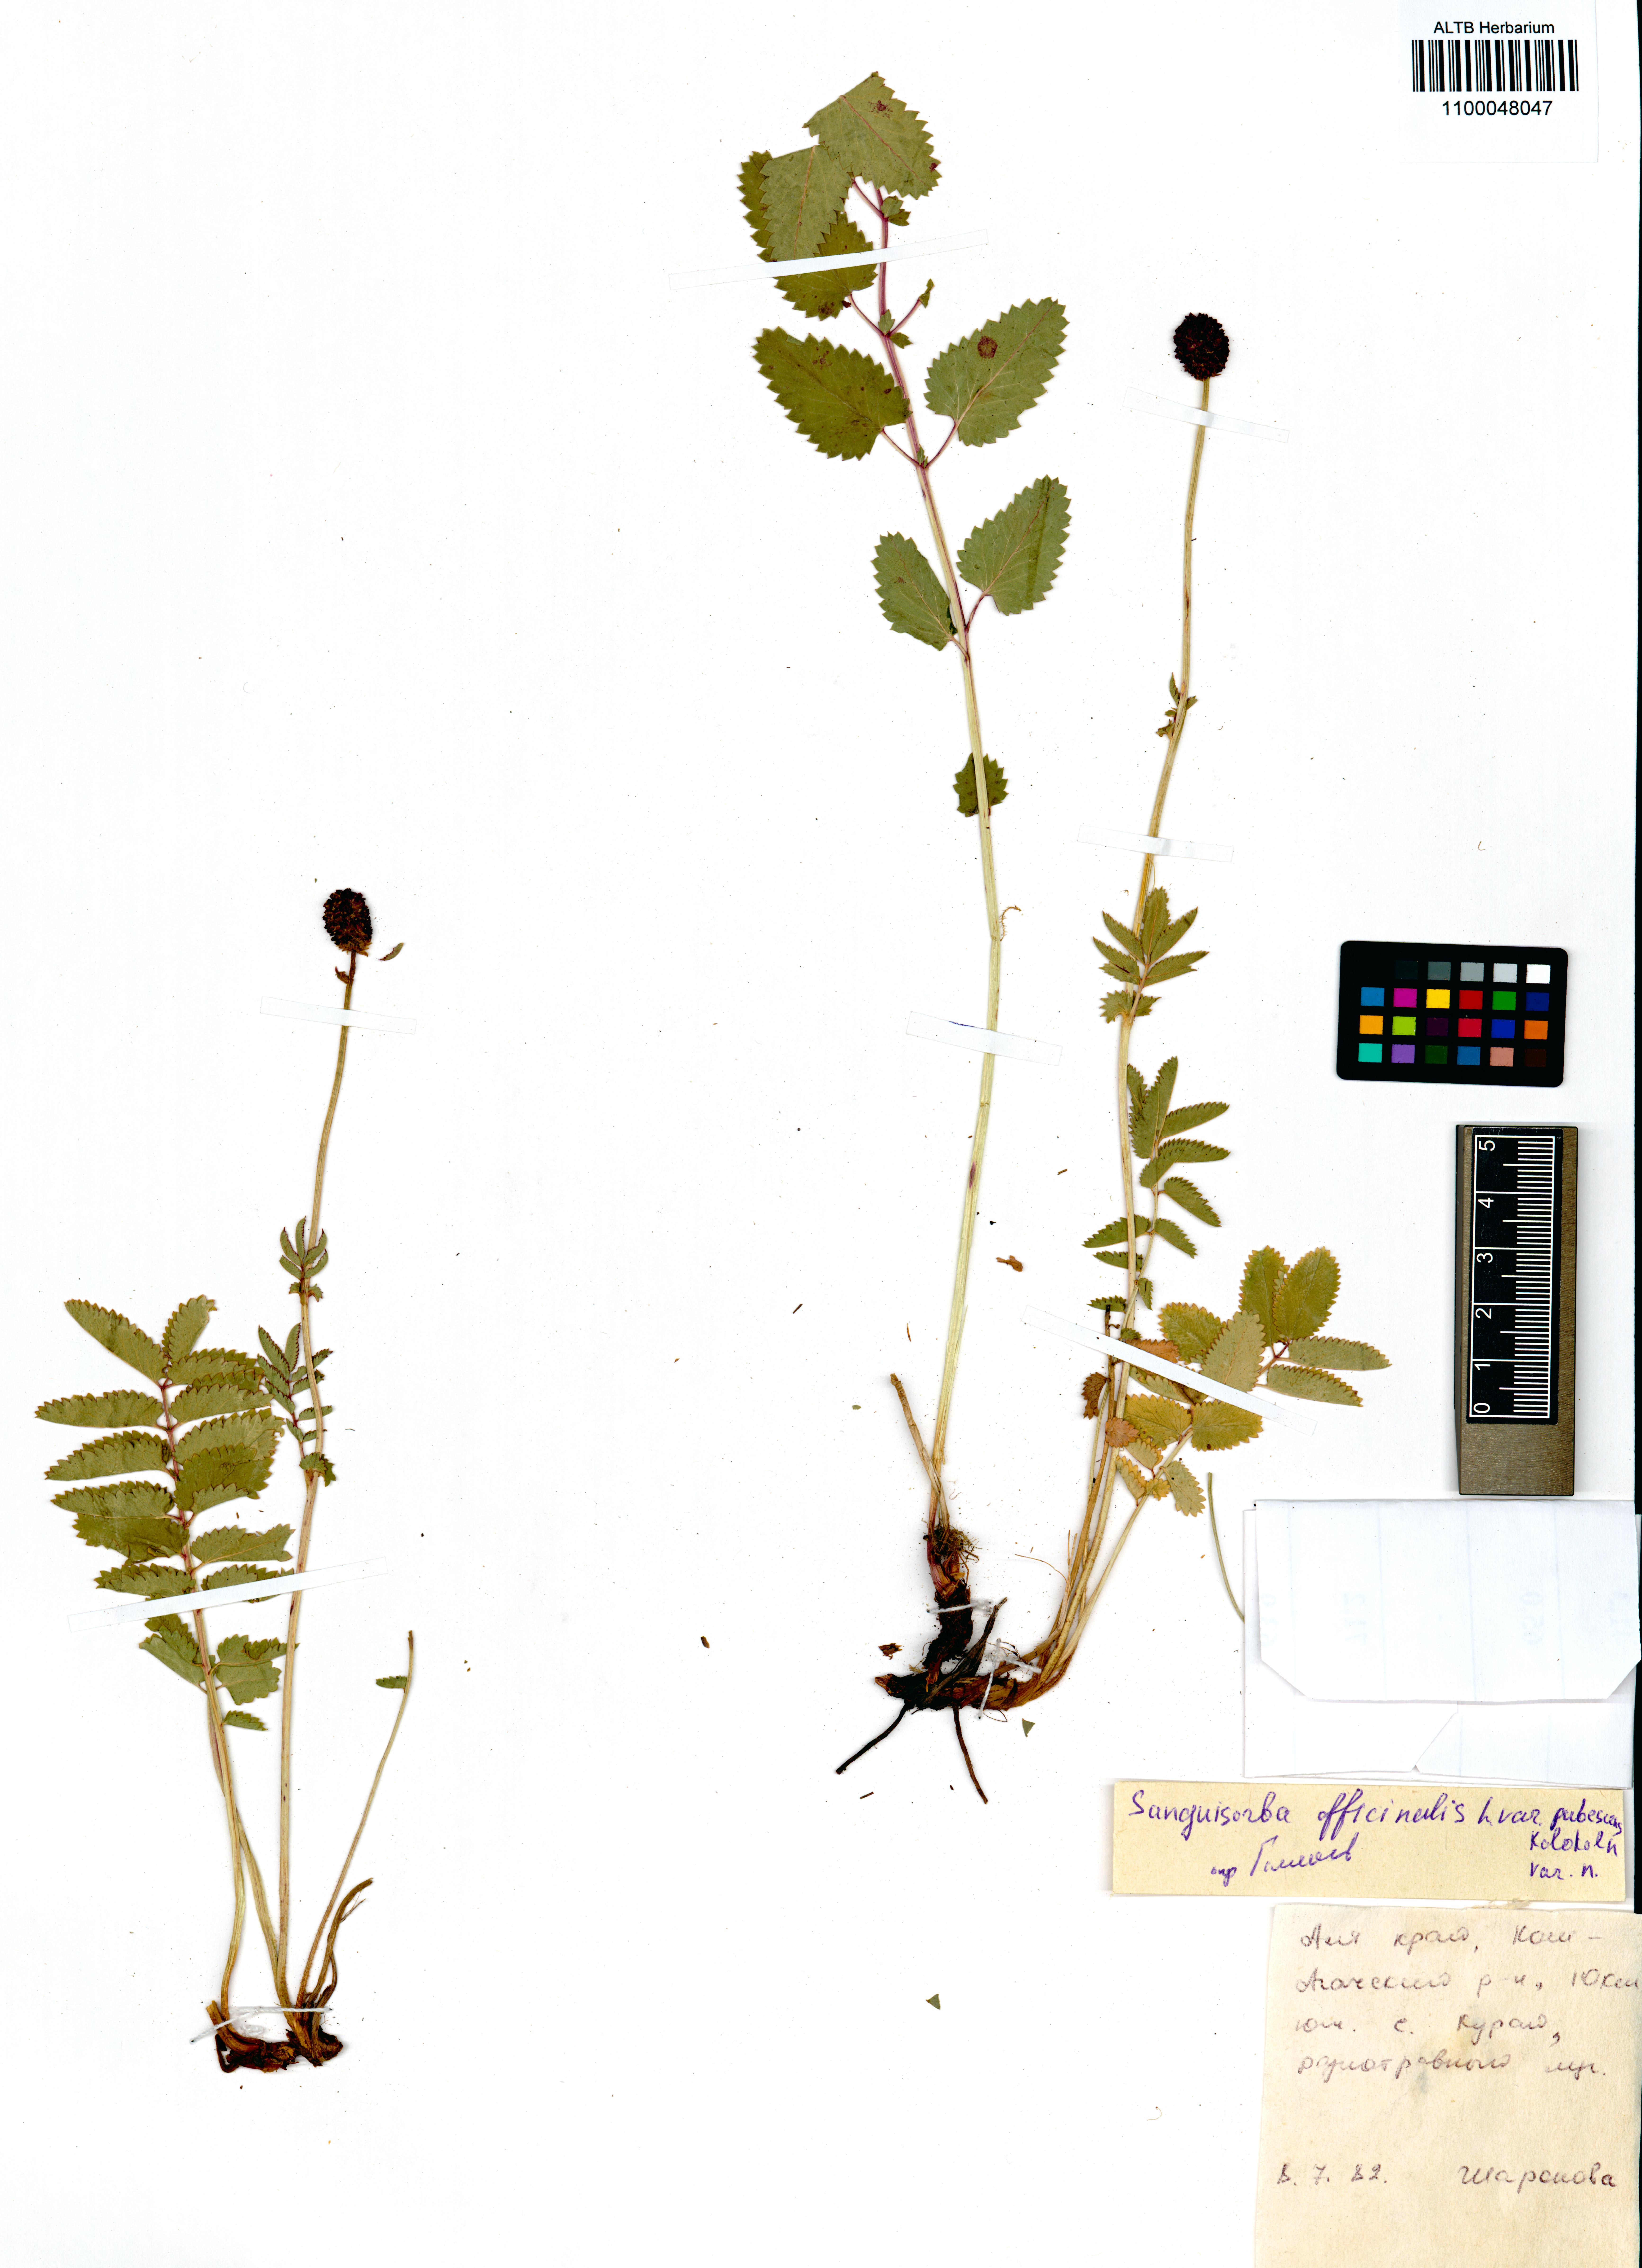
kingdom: Plantae
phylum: Tracheophyta
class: Magnoliopsida
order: Rosales
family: Rosaceae
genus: Sanguisorba
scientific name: Sanguisorba officinalis
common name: Great burnet
